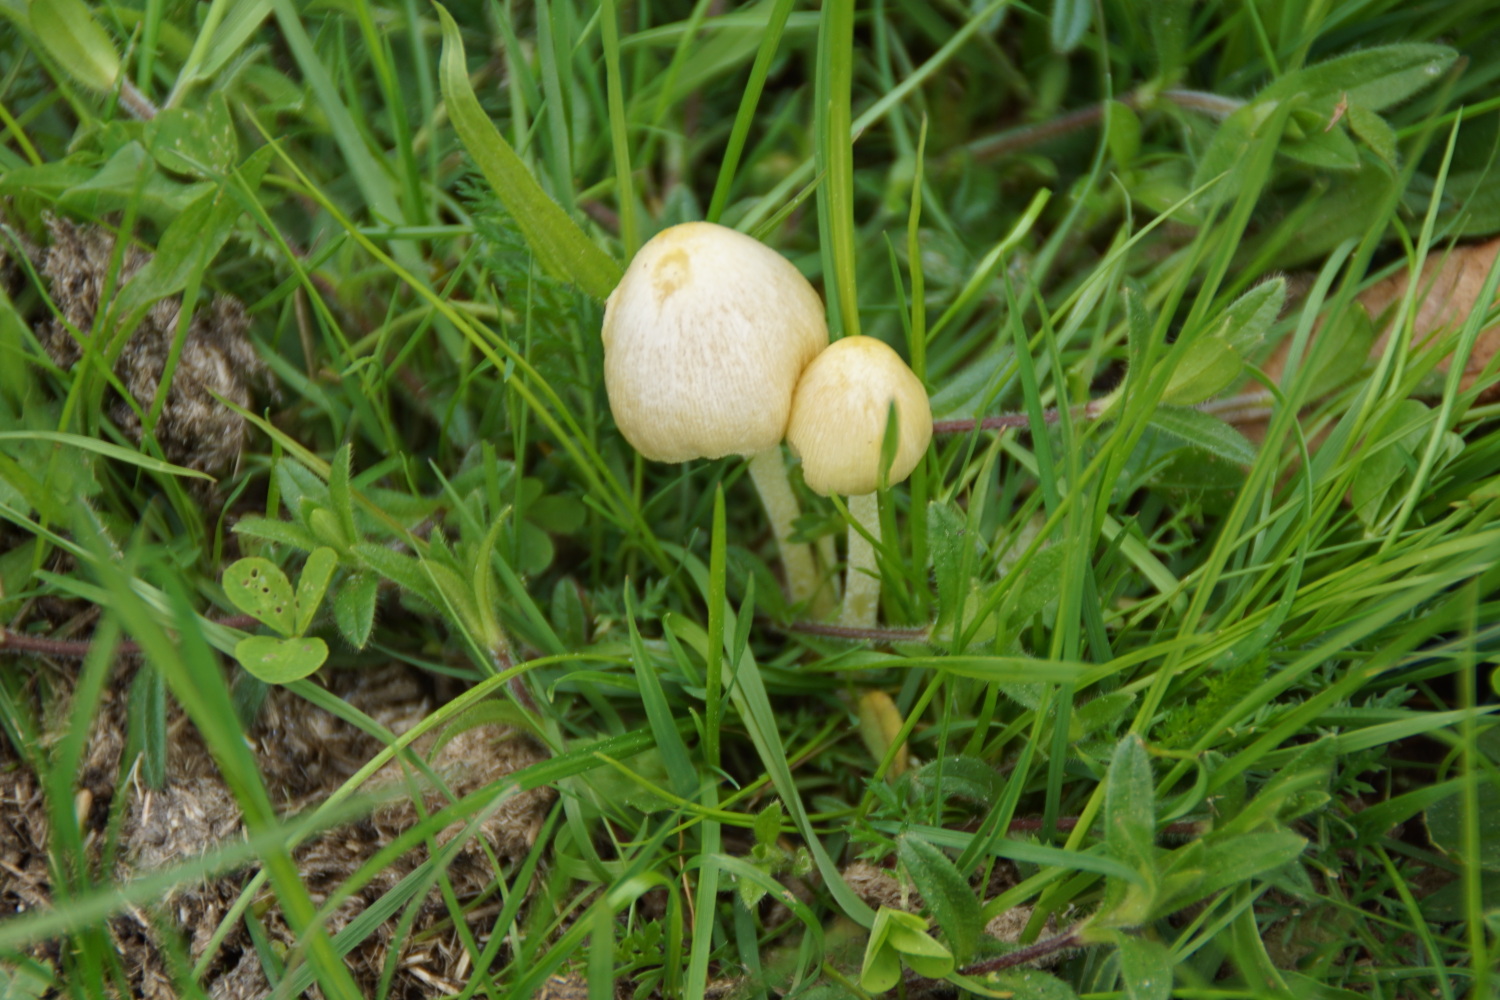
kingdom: Fungi
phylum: Basidiomycota
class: Agaricomycetes
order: Agaricales
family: Bolbitiaceae
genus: Bolbitius
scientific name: Bolbitius titubans
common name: almindelig gulhat
